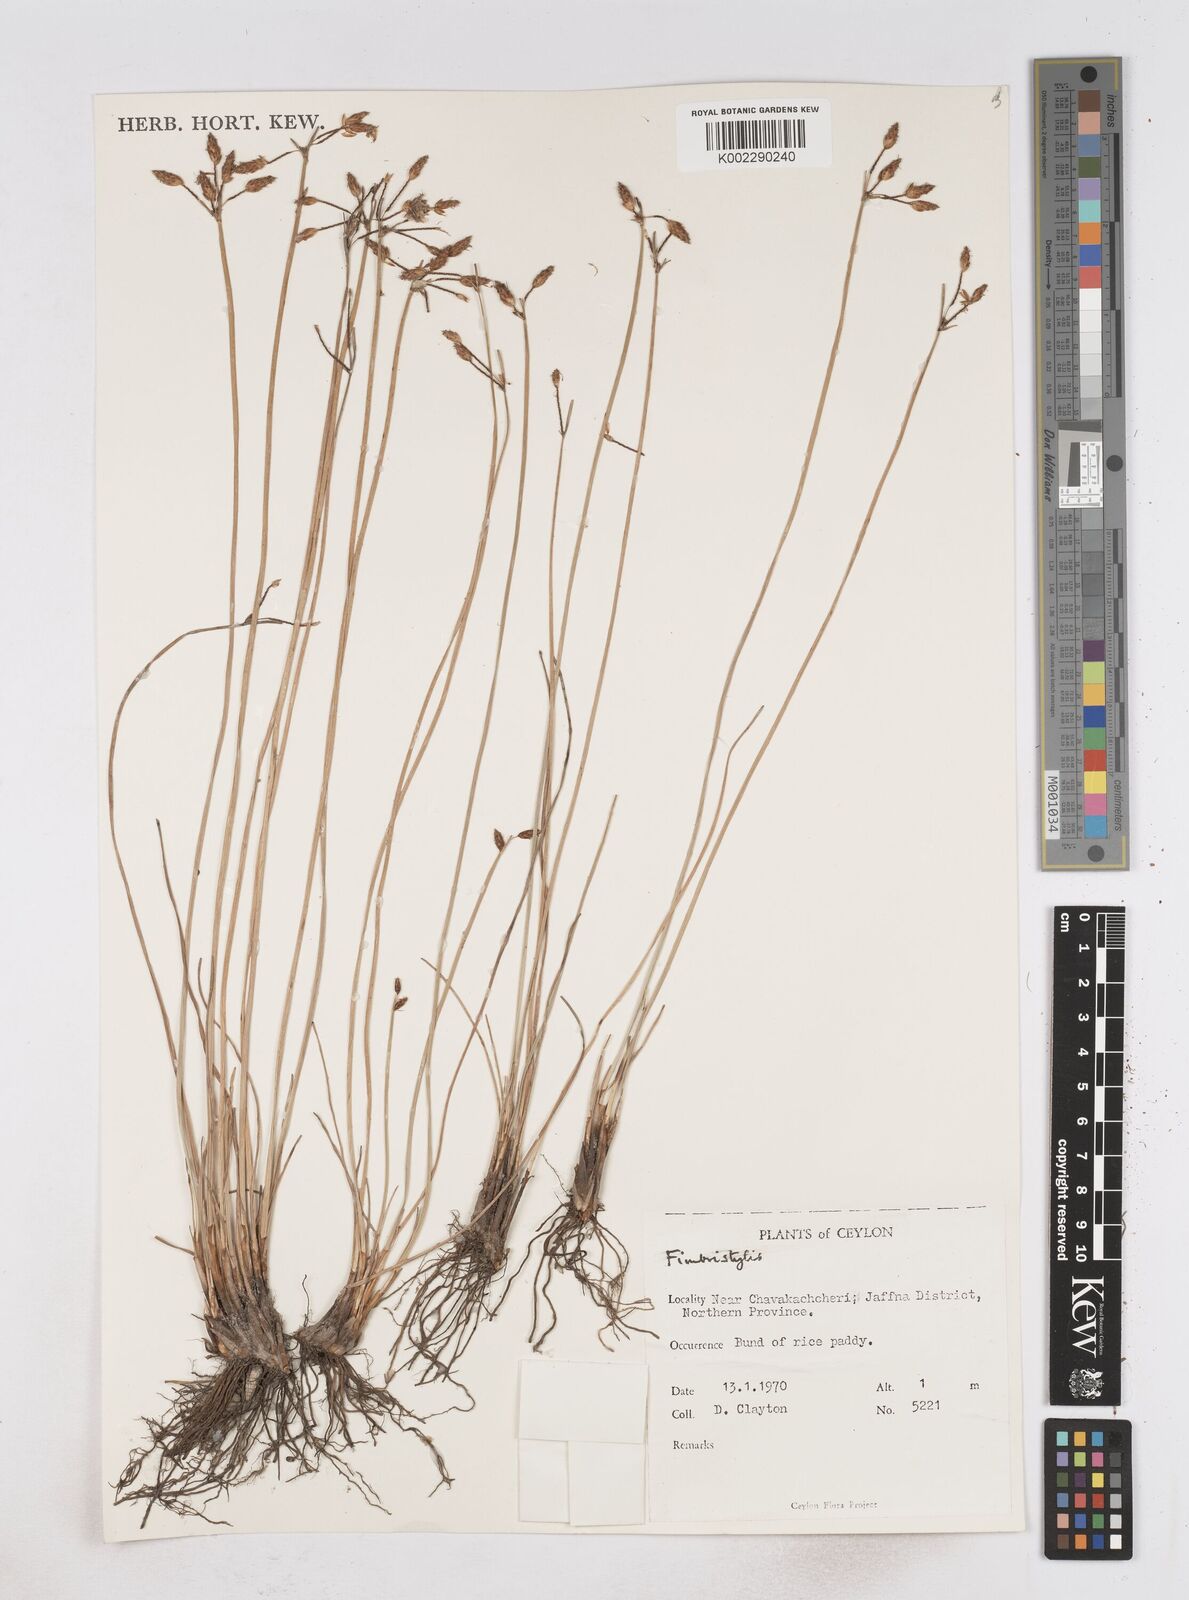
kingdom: Plantae
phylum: Tracheophyta
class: Liliopsida
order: Poales
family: Cyperaceae
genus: Fimbristylis
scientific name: Fimbristylis
